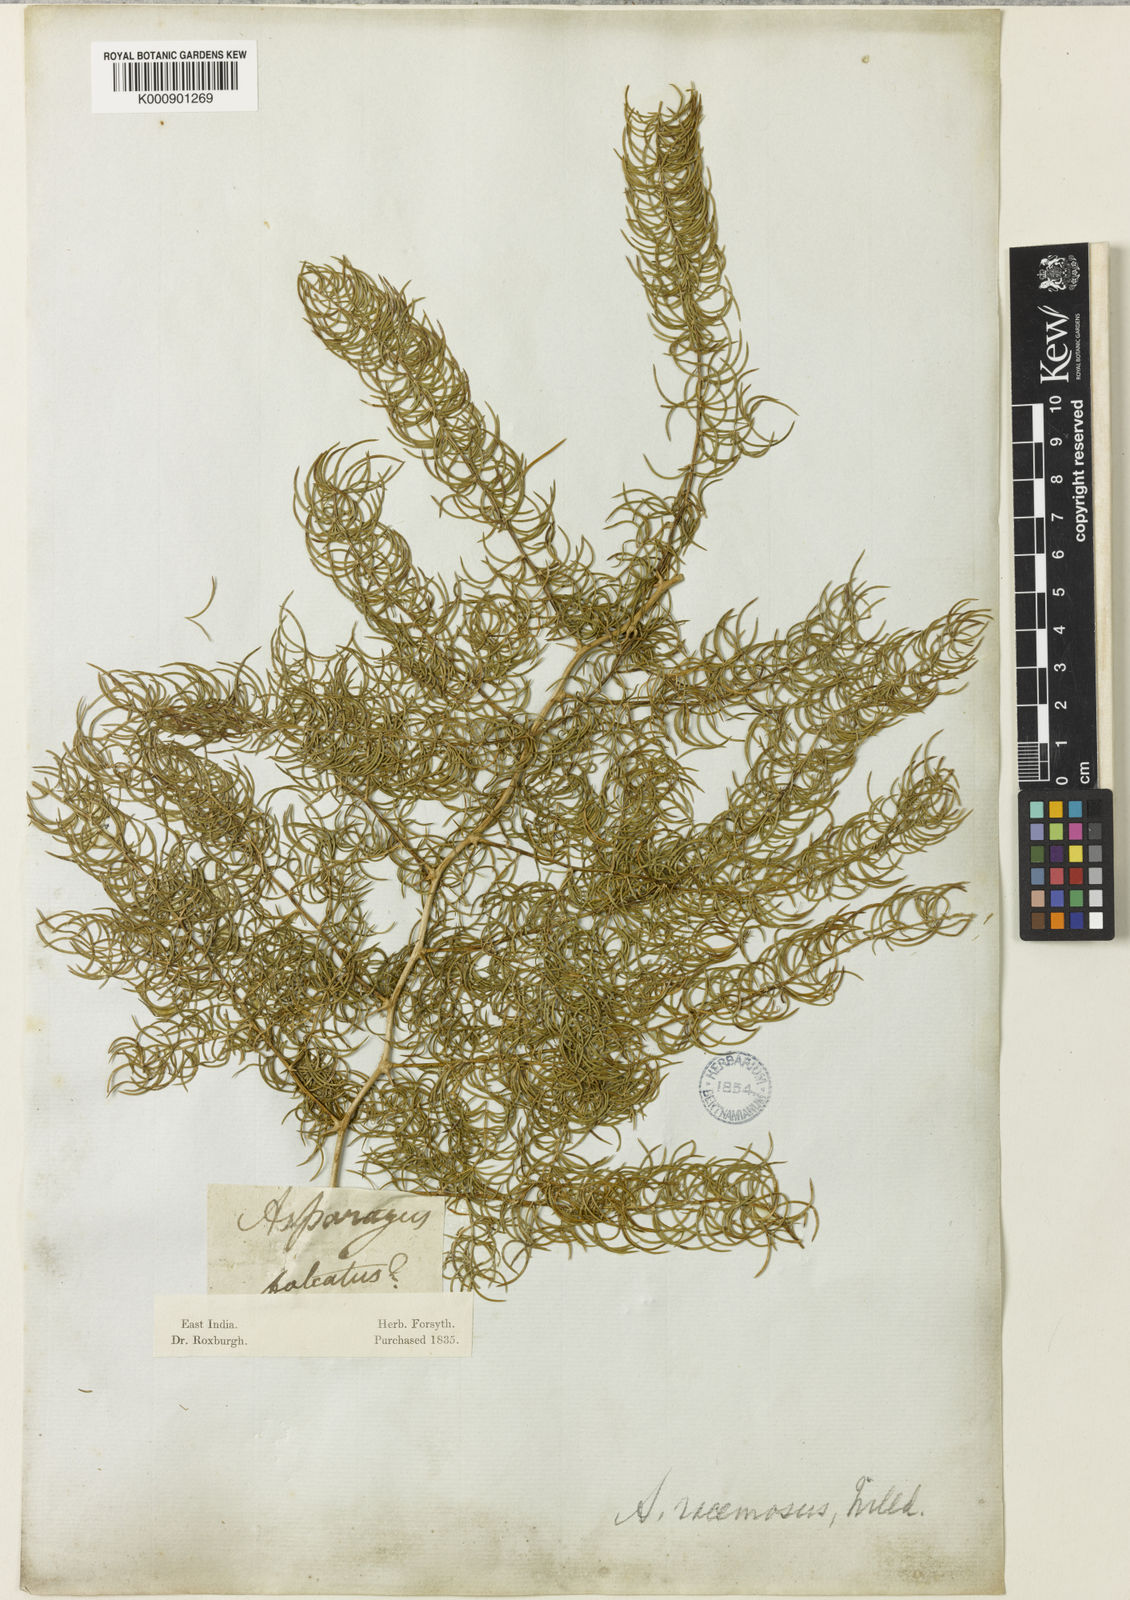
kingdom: Plantae
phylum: Tracheophyta
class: Liliopsida
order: Asparagales
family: Asparagaceae
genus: Asparagus
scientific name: Asparagus racemosus
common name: Asparagus-fern
